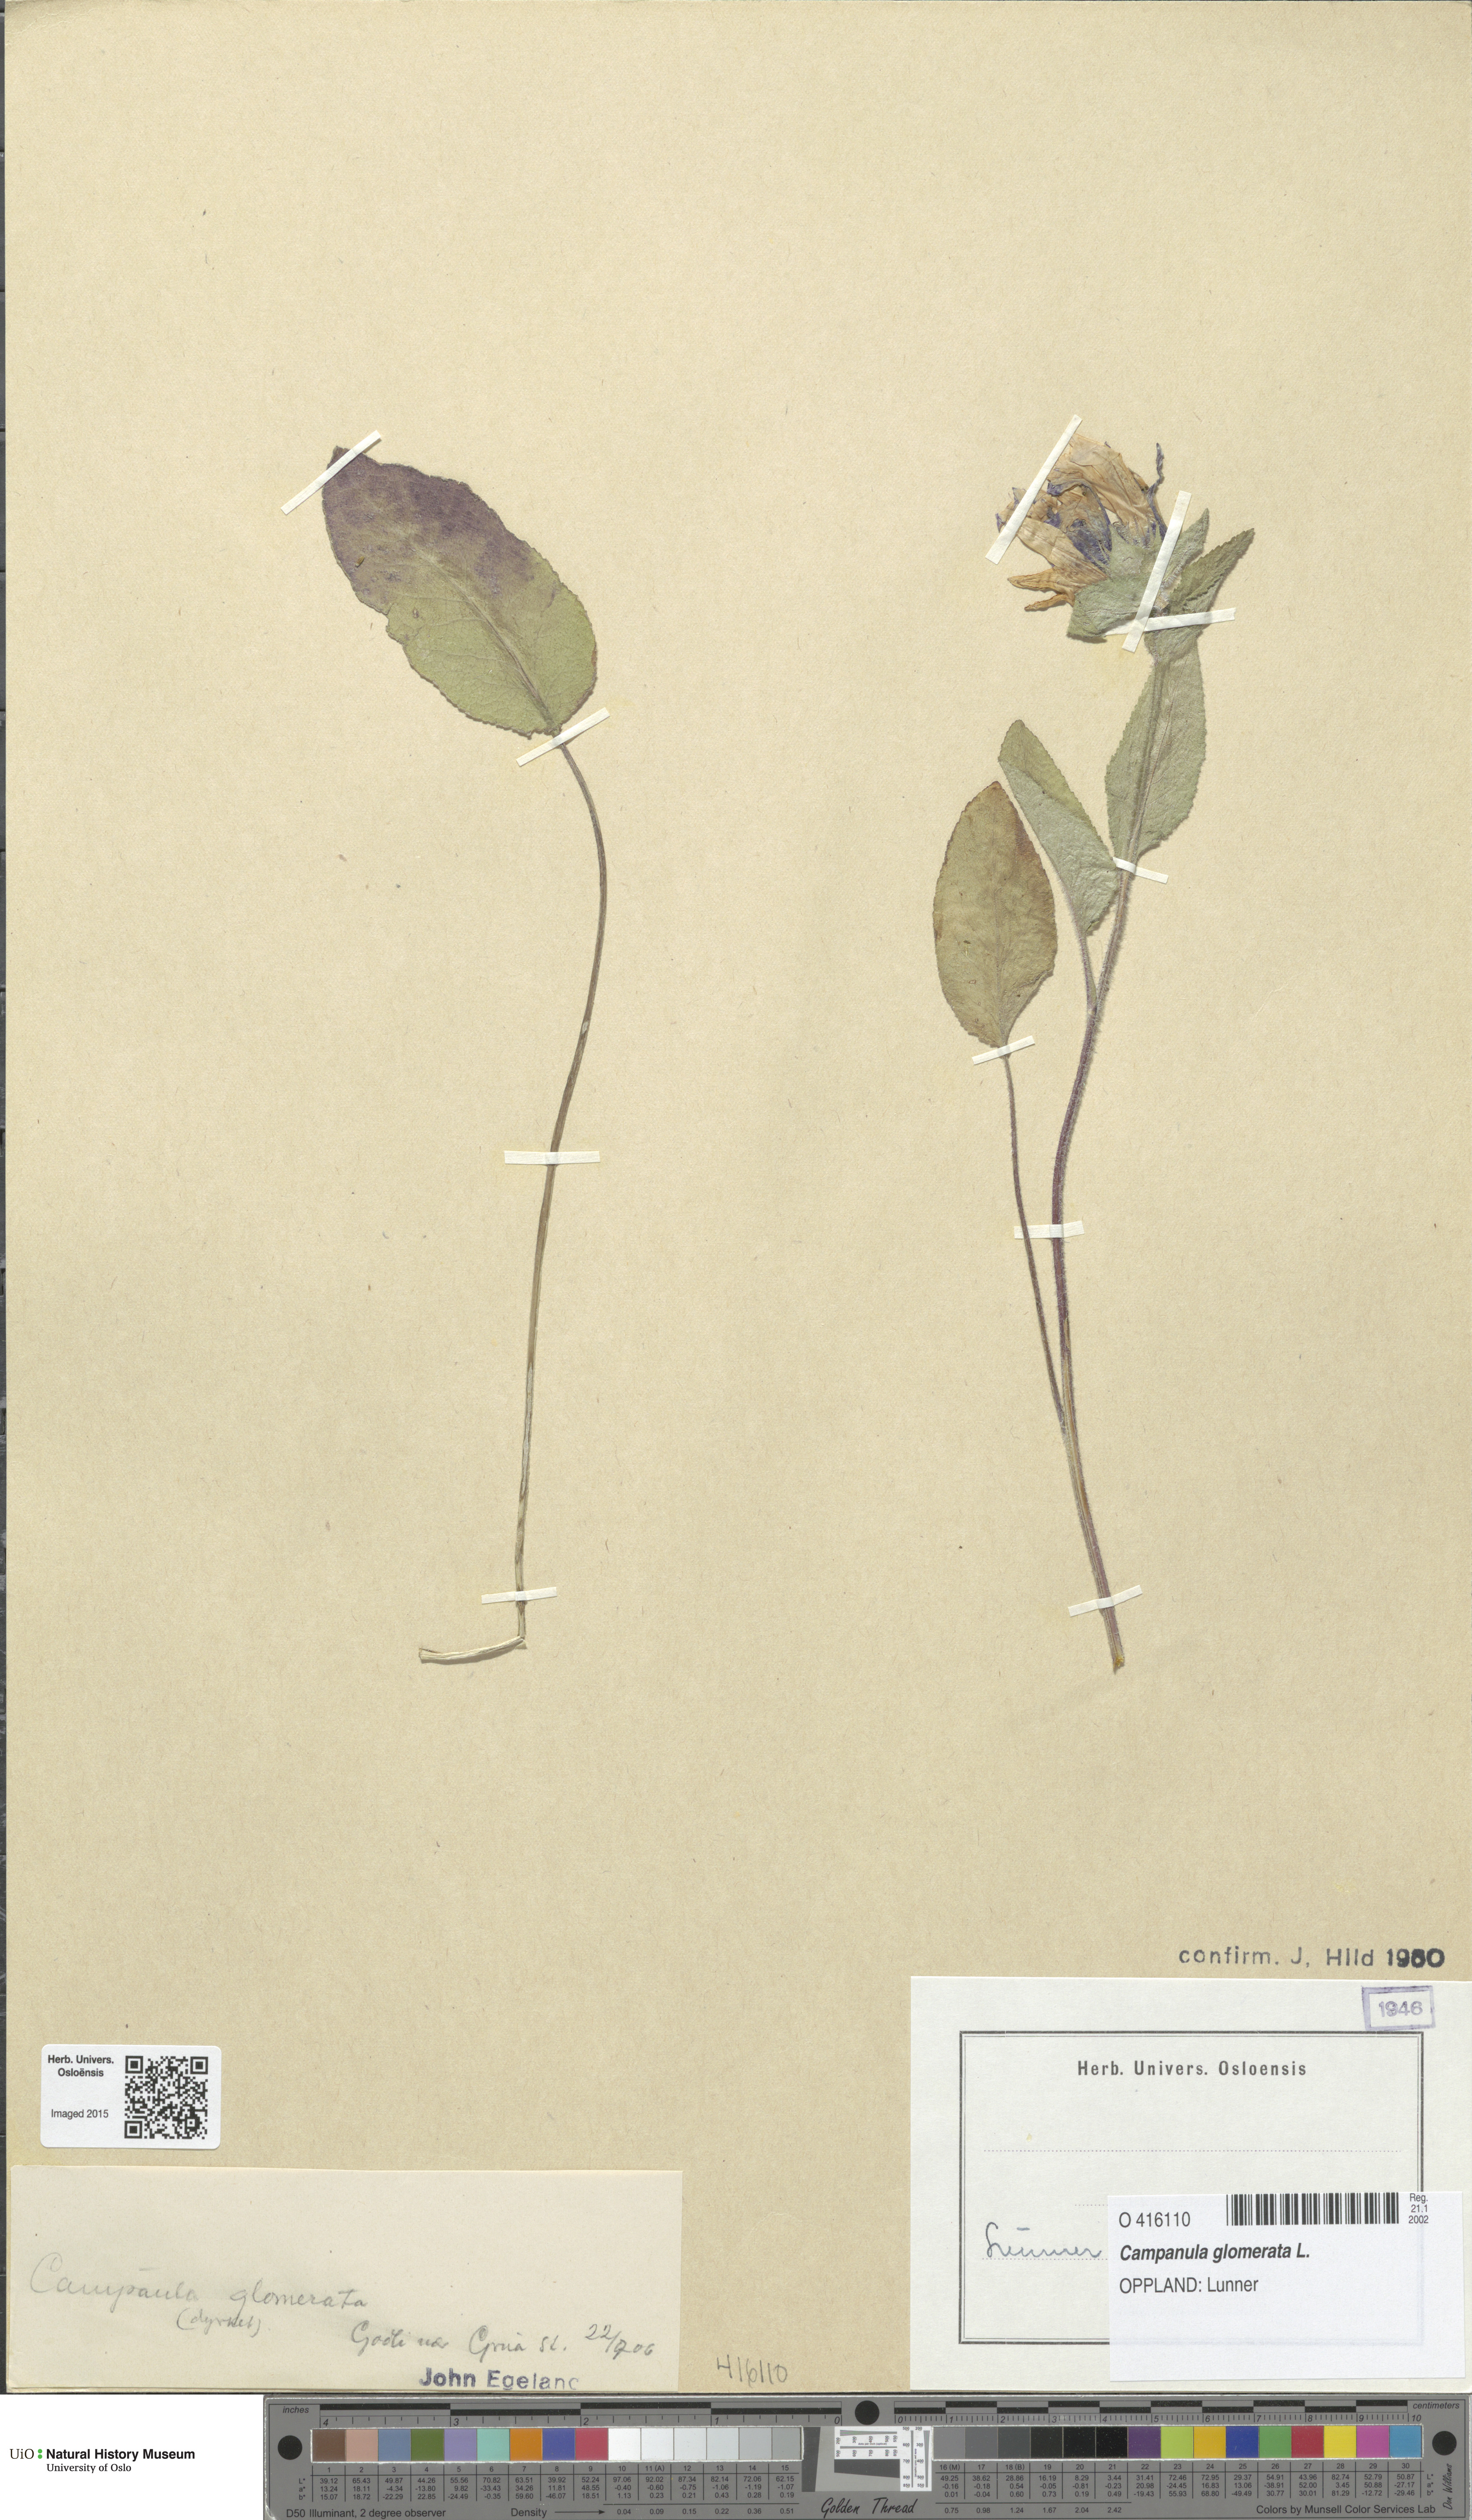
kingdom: Plantae
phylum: Tracheophyta
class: Magnoliopsida
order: Asterales
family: Campanulaceae
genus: Campanula
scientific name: Campanula glomerata
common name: Clustered bellflower
